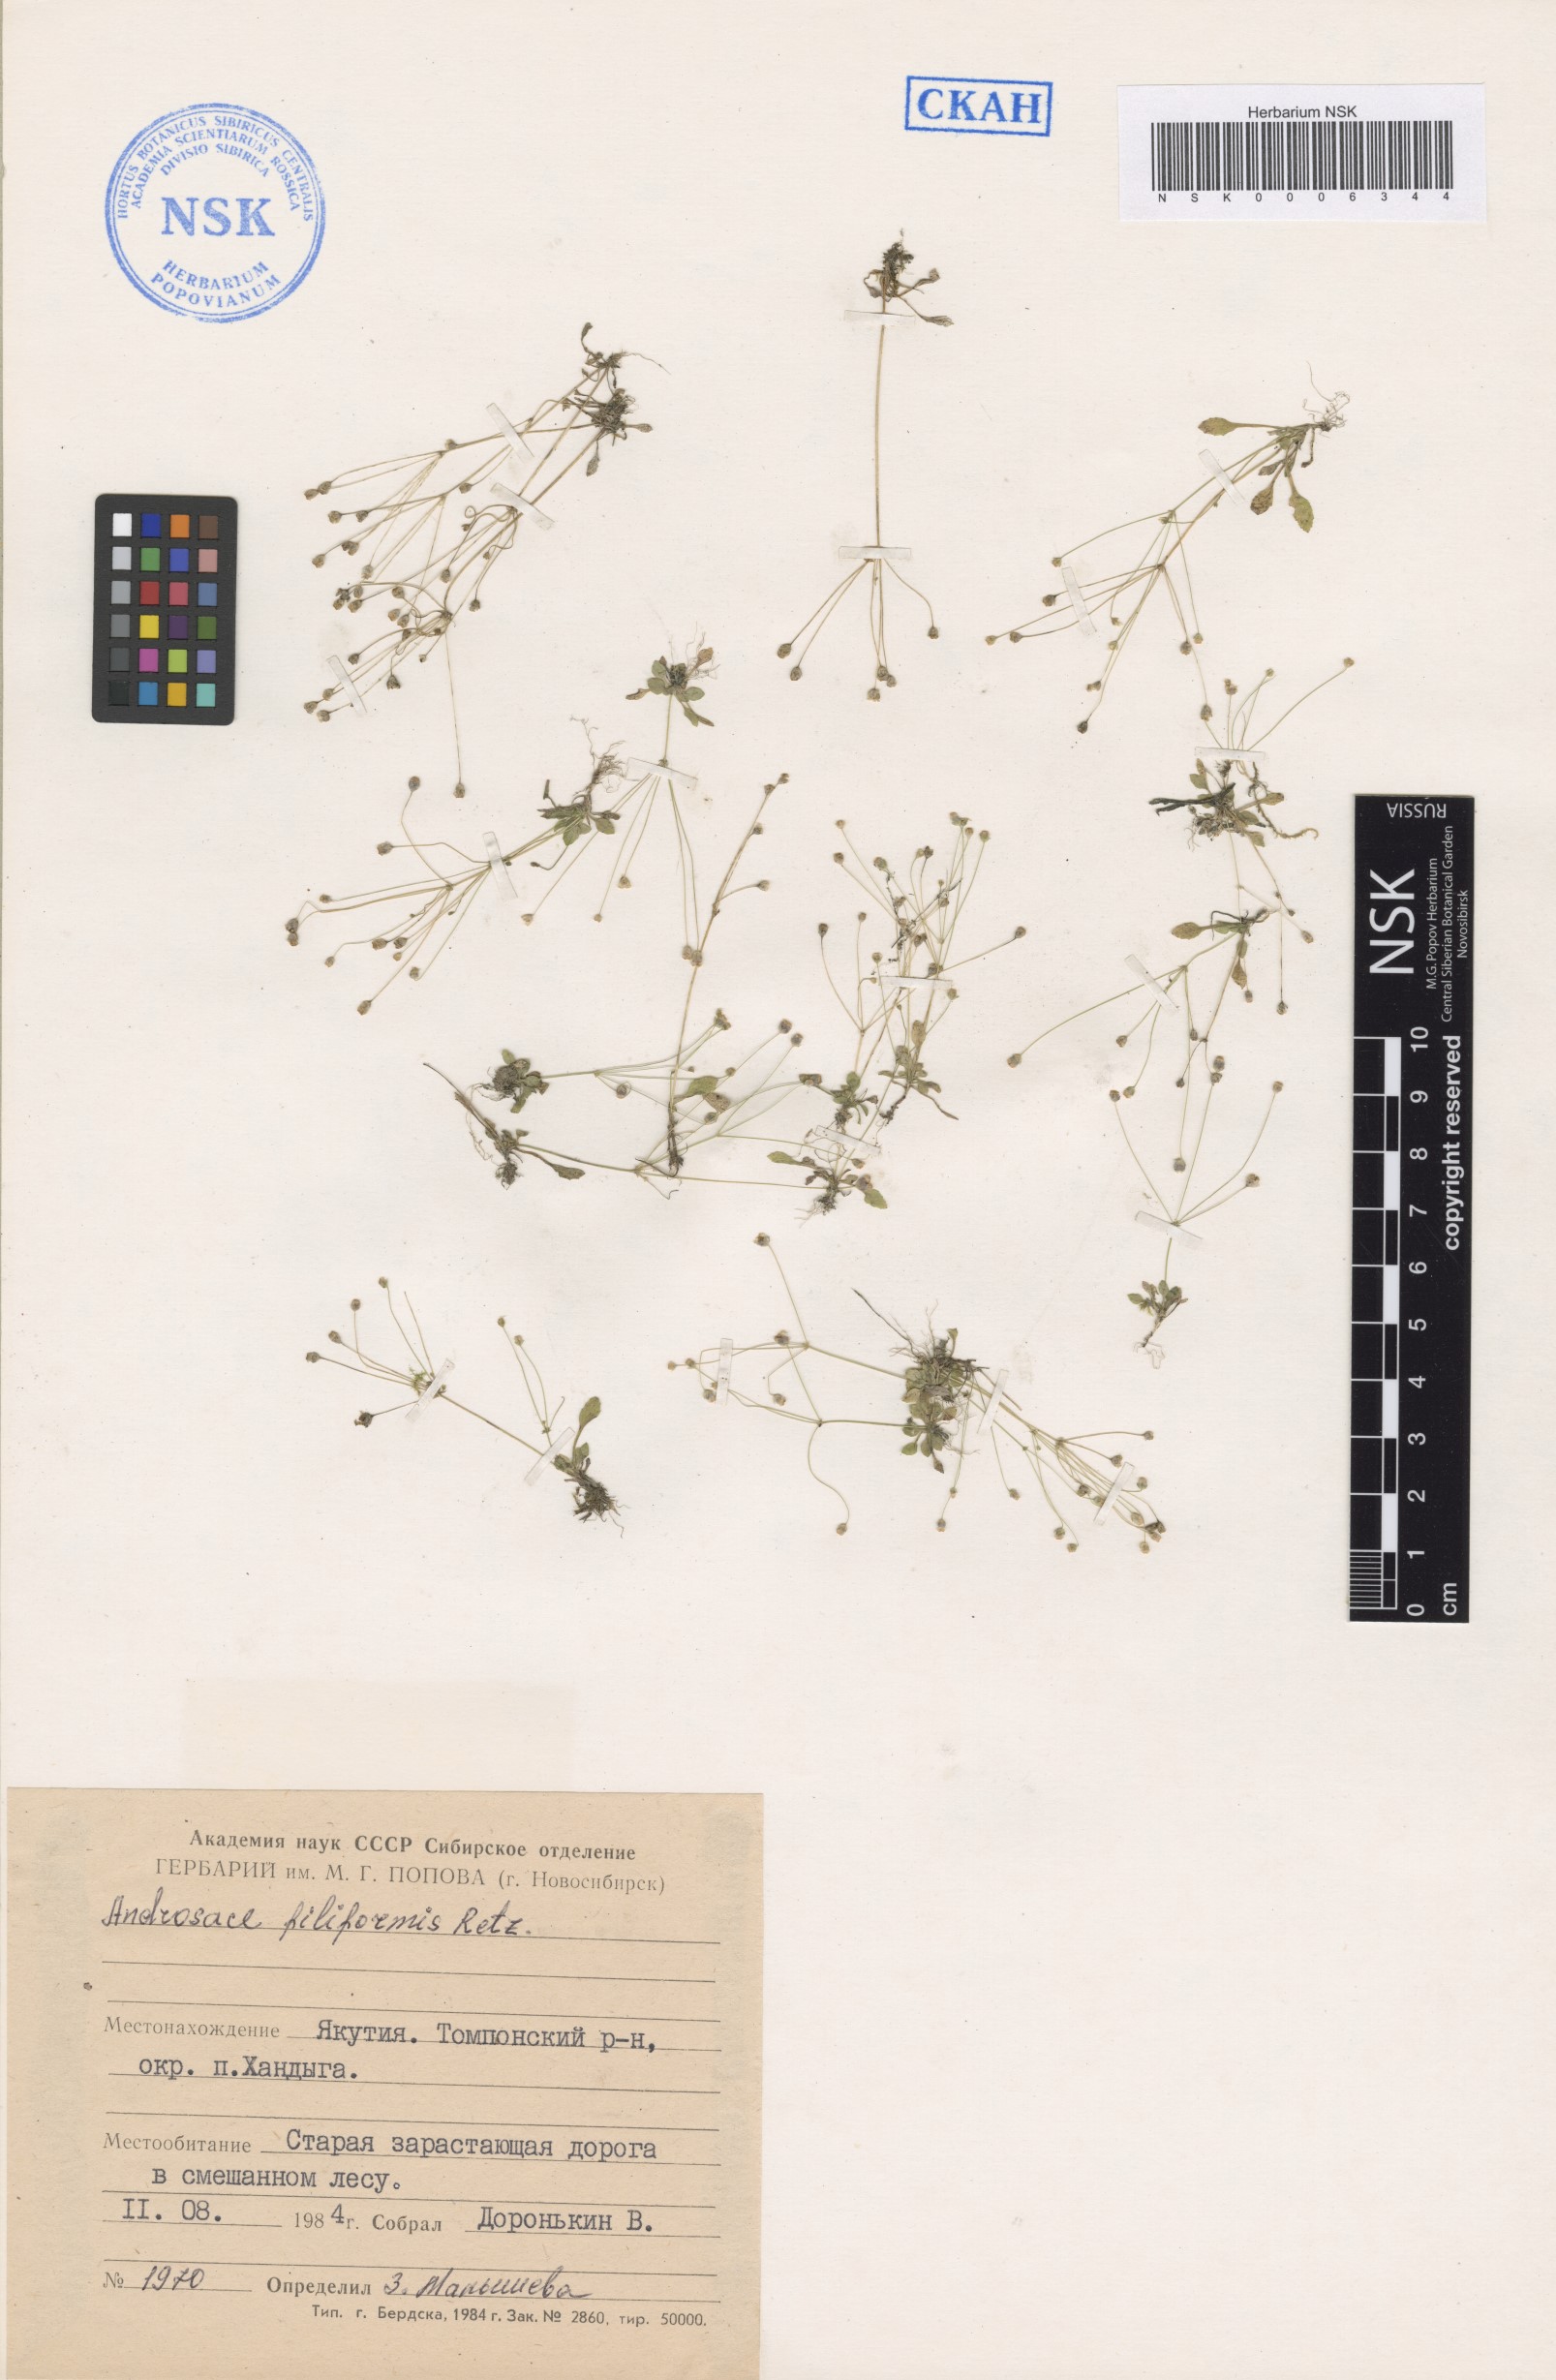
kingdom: Plantae
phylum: Tracheophyta
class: Magnoliopsida
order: Ericales
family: Primulaceae
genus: Androsace
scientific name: Androsace filiformis
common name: Filiform rock jasmine
